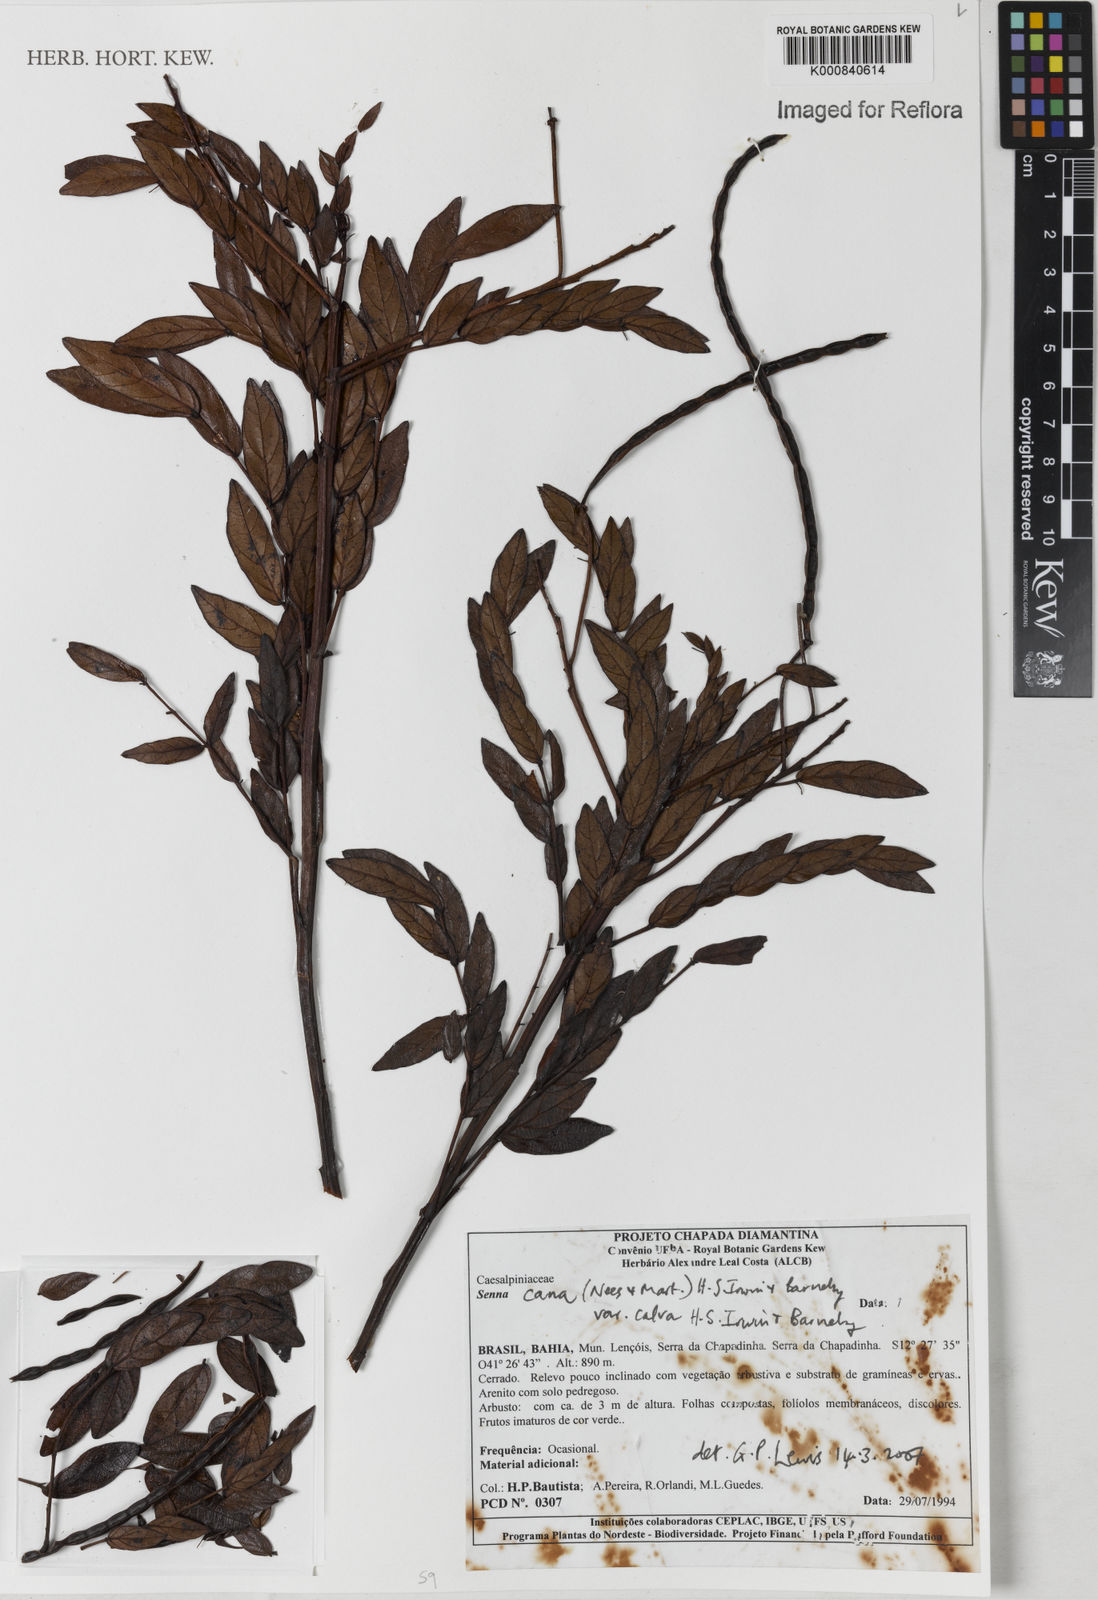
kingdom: Plantae
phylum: Tracheophyta
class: Magnoliopsida
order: Fabales
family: Fabaceae
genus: Senna
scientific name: Senna cana
